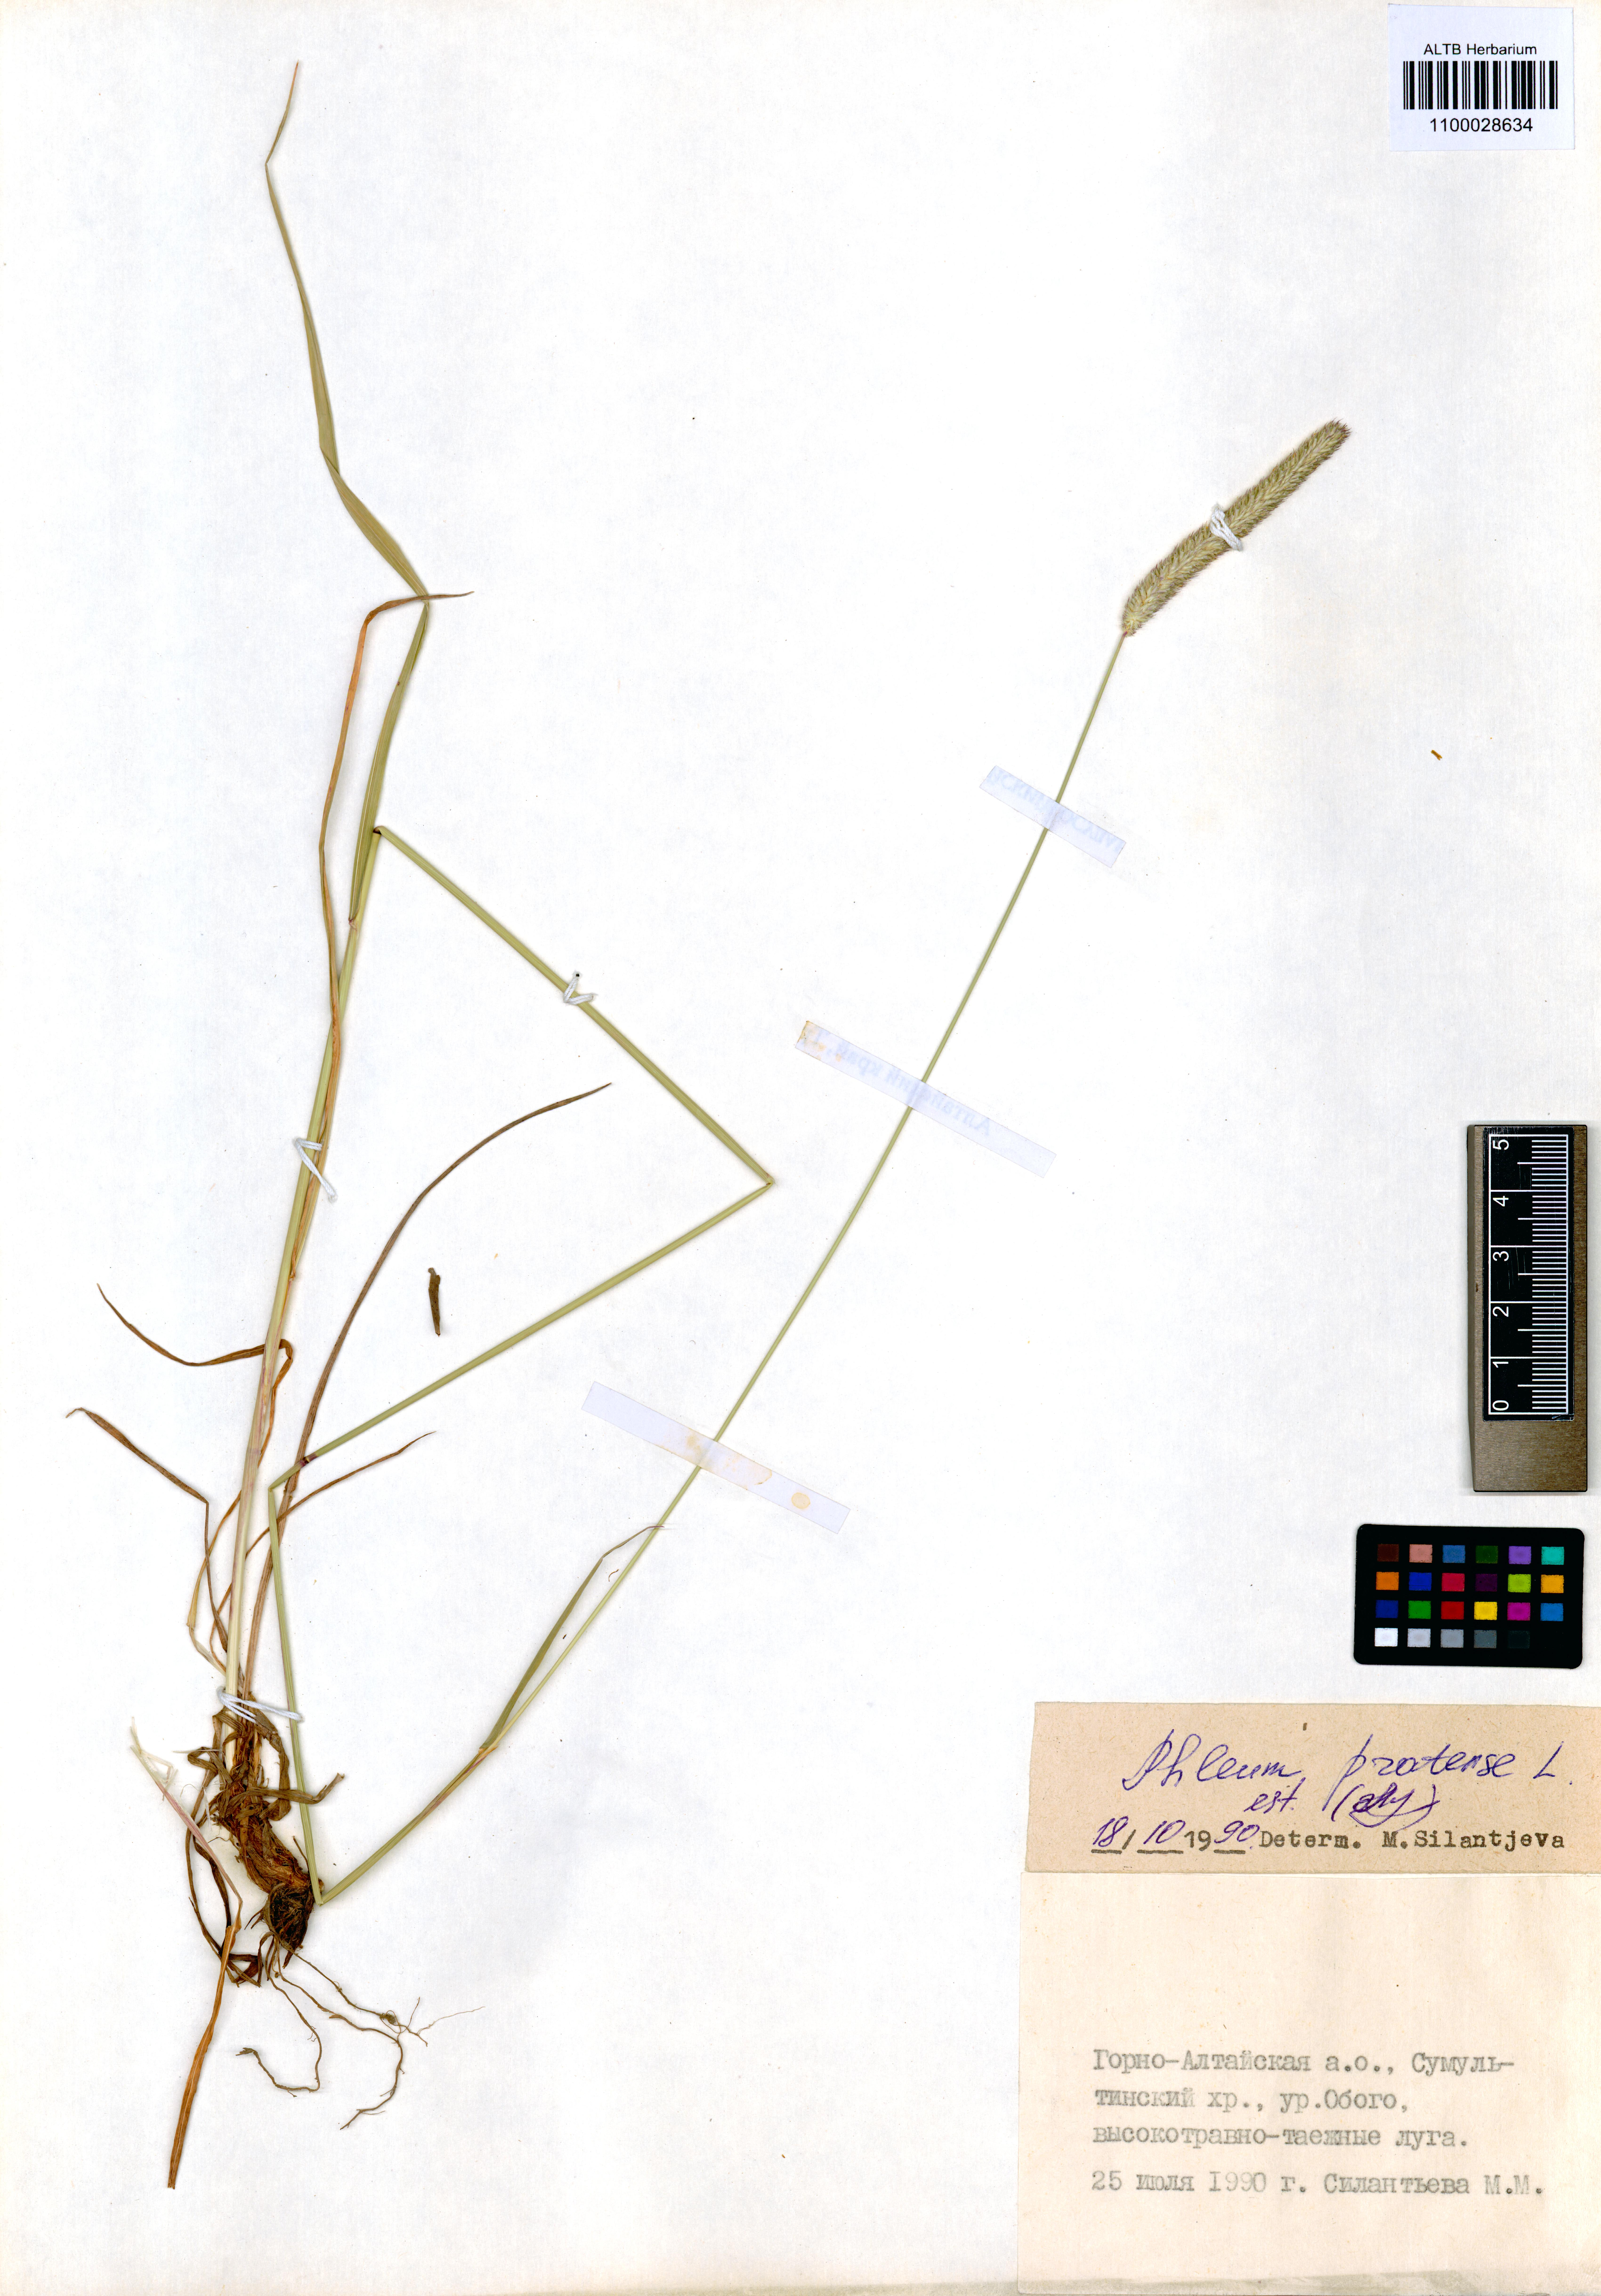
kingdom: Plantae
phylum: Tracheophyta
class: Liliopsida
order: Poales
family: Poaceae
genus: Phleum
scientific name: Phleum pratense
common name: Timothy grass
